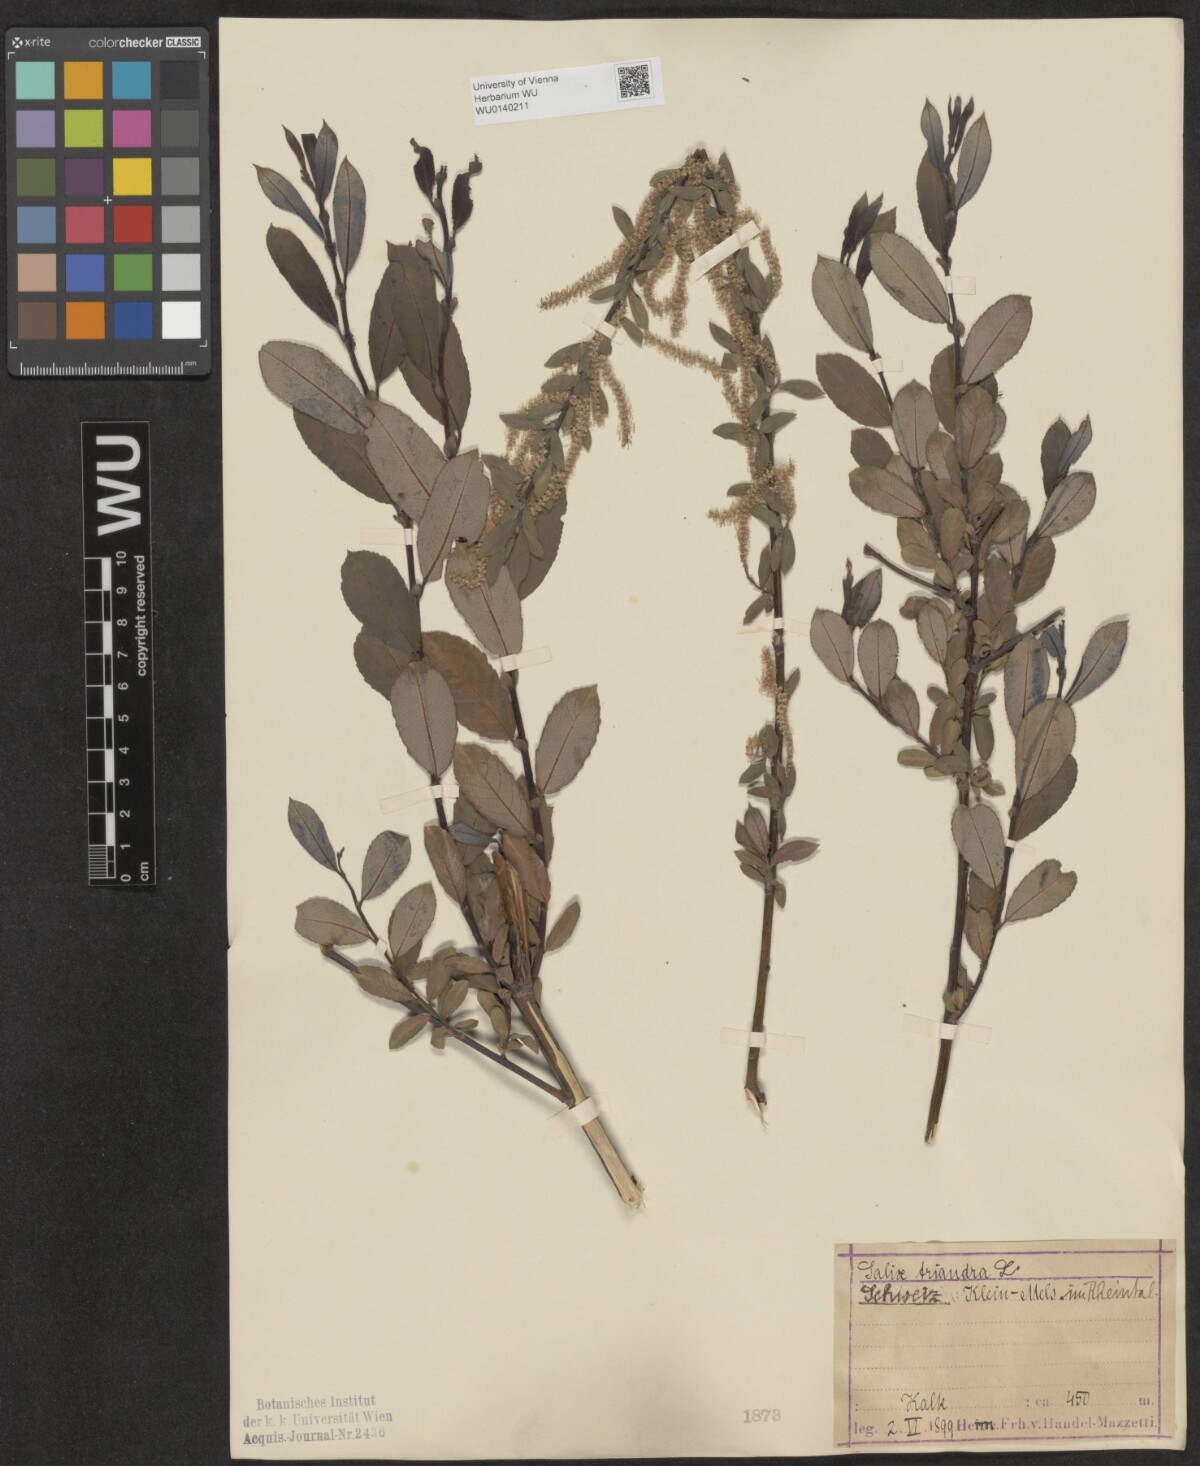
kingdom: Plantae
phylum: Tracheophyta
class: Magnoliopsida
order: Malpighiales
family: Salicaceae
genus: Salix
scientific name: Salix triandra
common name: Almond willow
